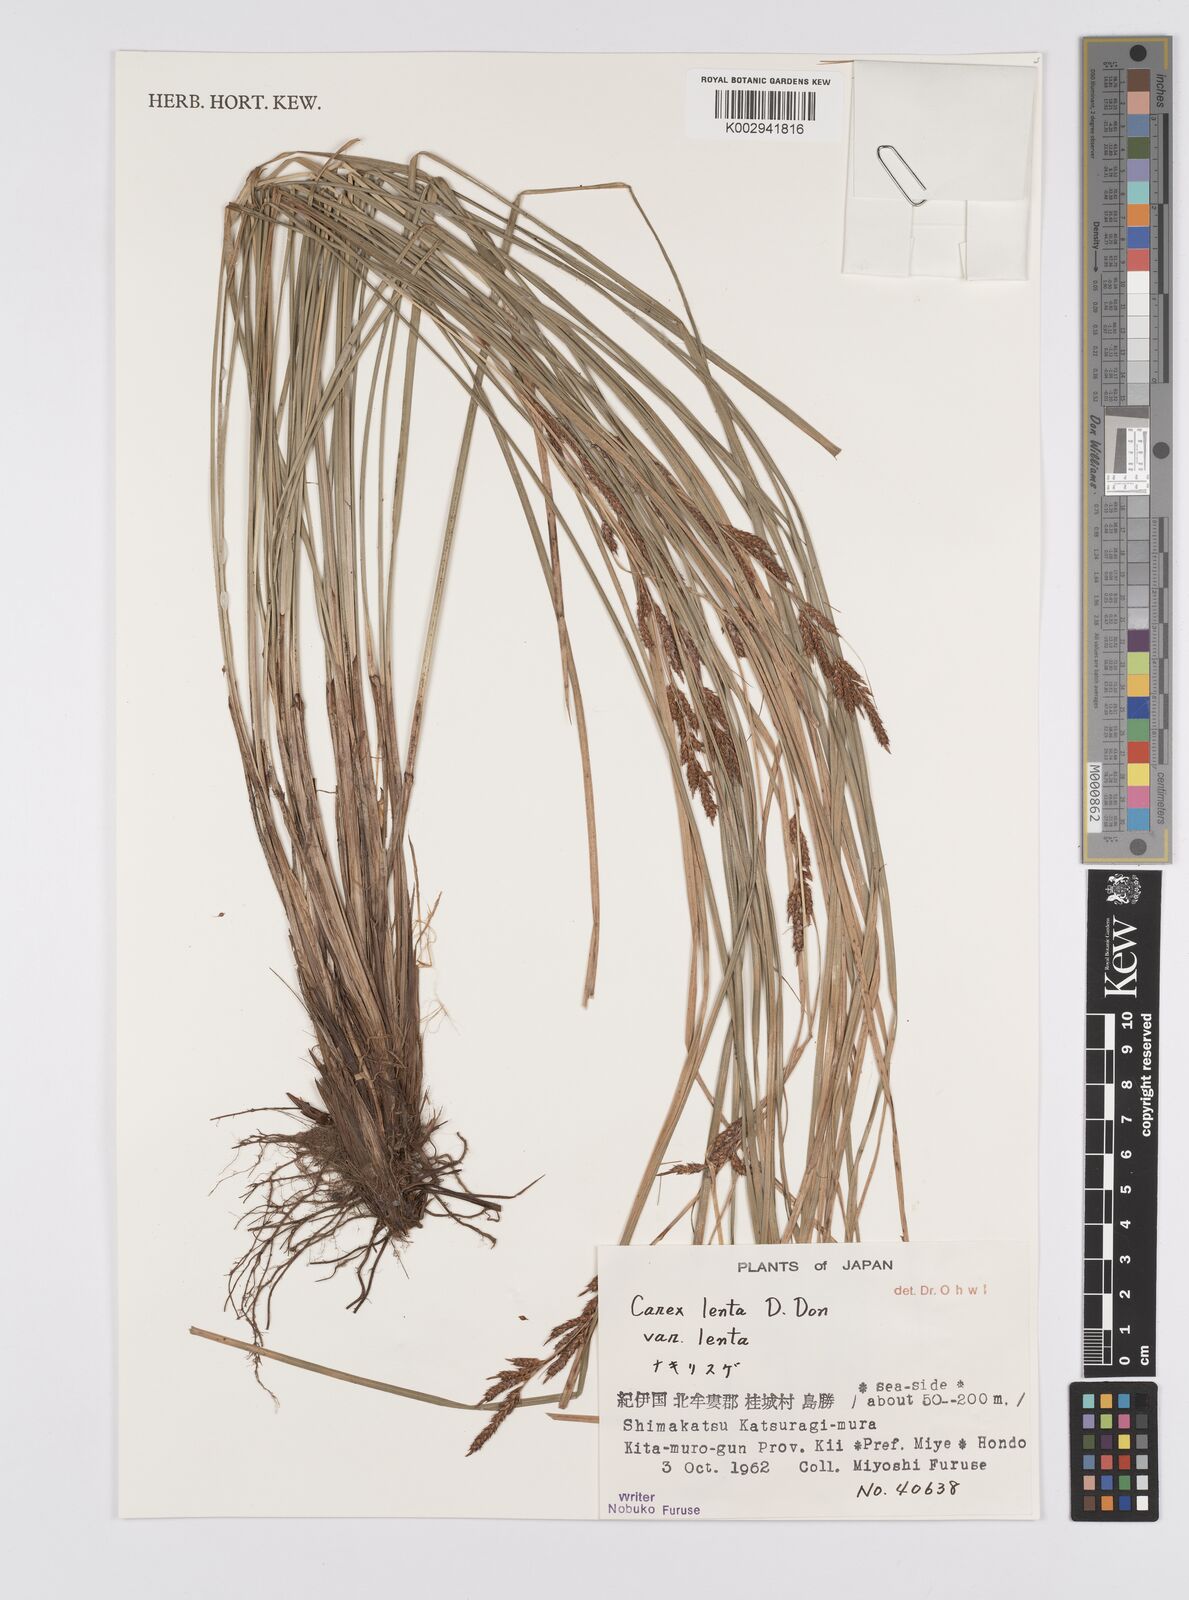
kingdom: Plantae
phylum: Tracheophyta
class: Liliopsida
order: Poales
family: Cyperaceae
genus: Carex
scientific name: Carex brunnea
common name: Greater brown sedge
